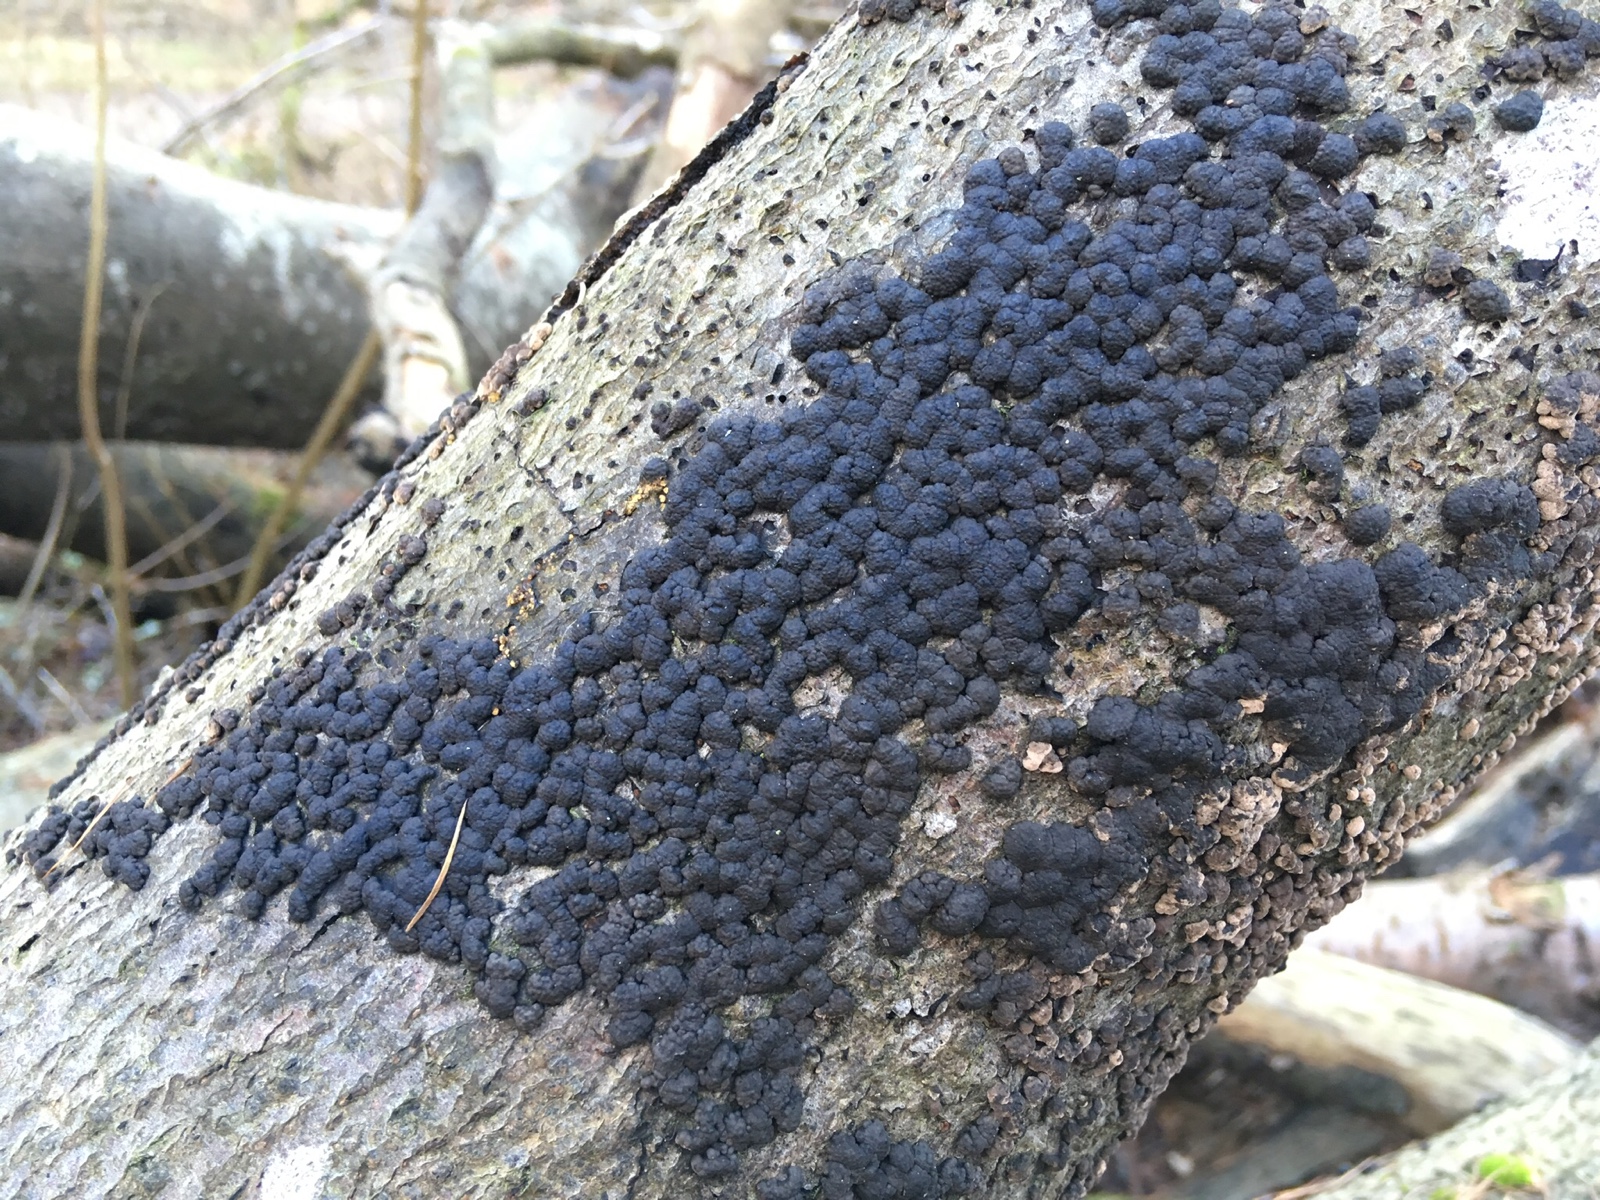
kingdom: Fungi
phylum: Ascomycota
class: Sordariomycetes
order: Xylariales
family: Hypoxylaceae
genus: Jackrogersella
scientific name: Jackrogersella cohaerens
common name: sammenflydende kulbær
